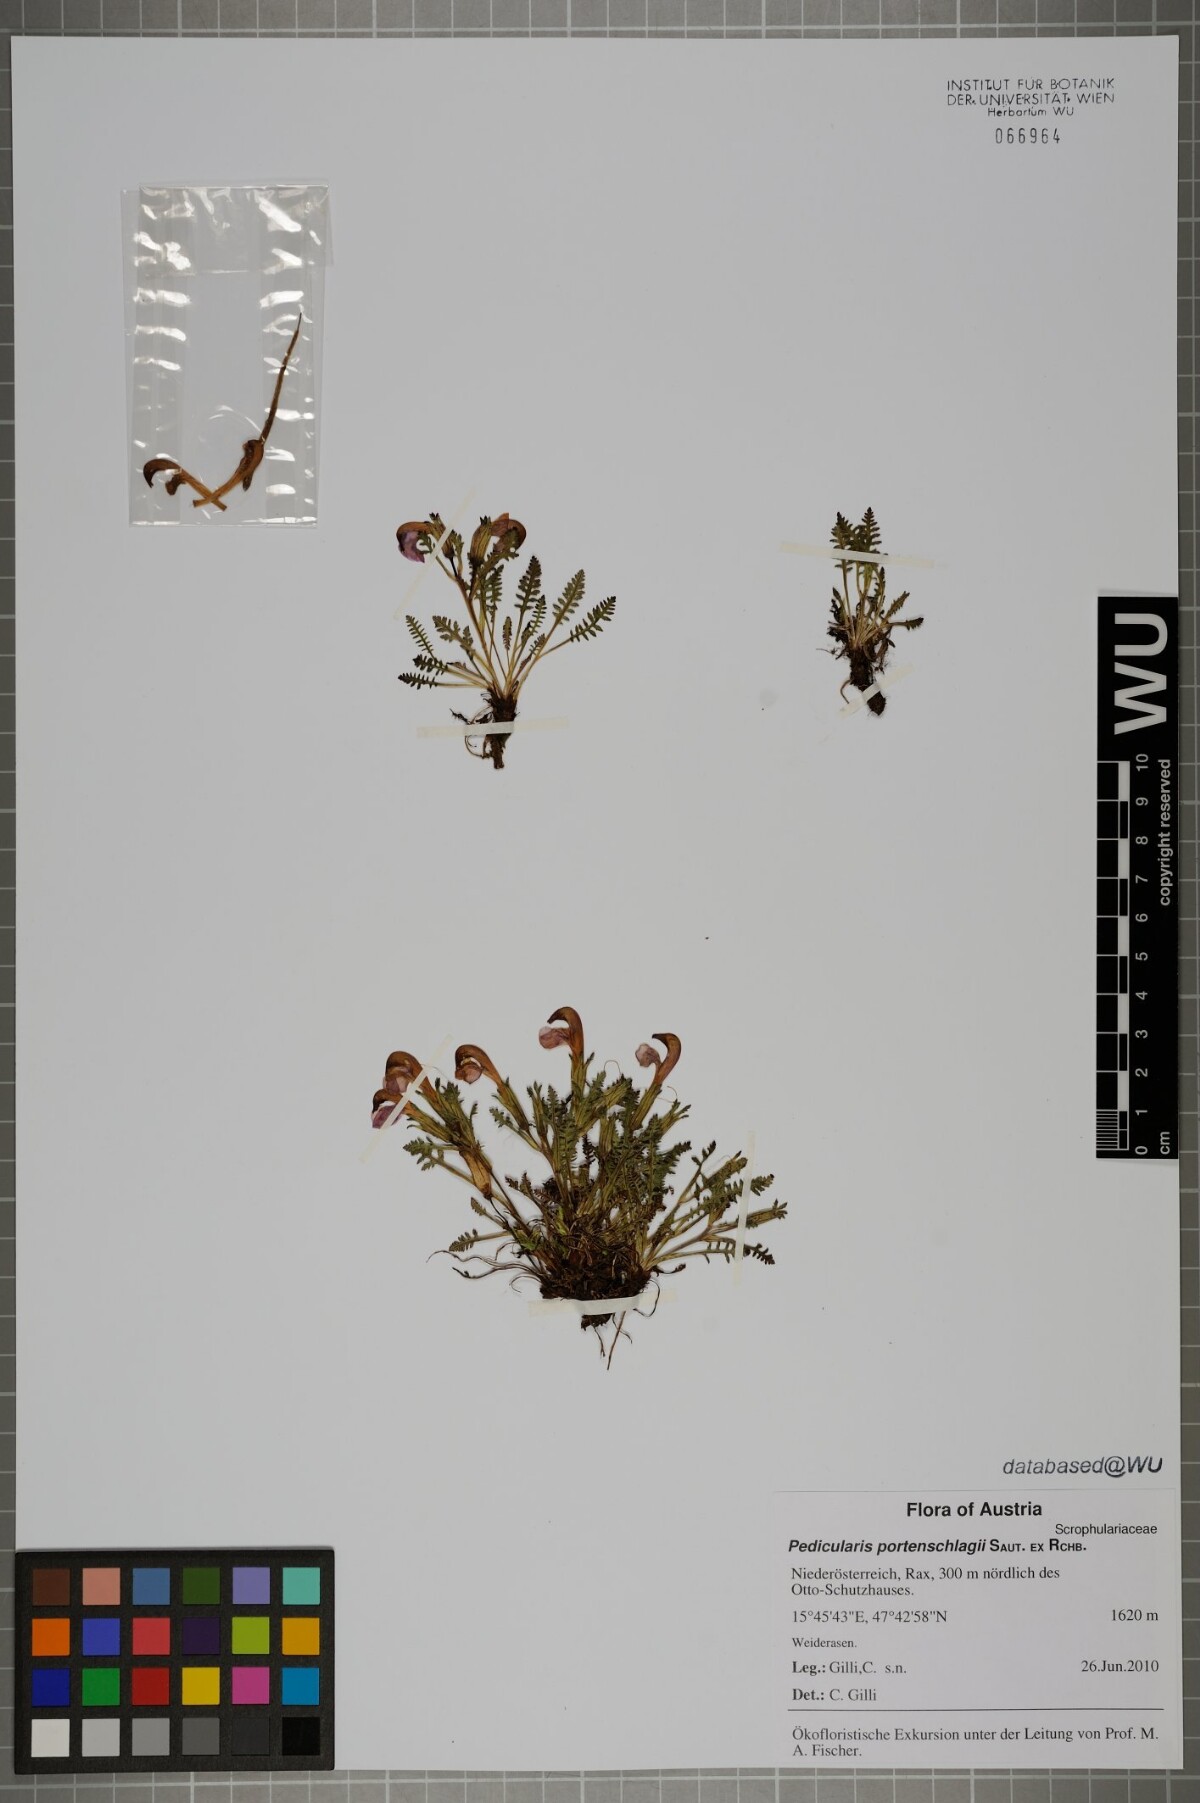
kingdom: Plantae
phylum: Tracheophyta
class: Magnoliopsida
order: Lamiales
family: Orobanchaceae
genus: Pedicularis
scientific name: Pedicularis portenschlagii
